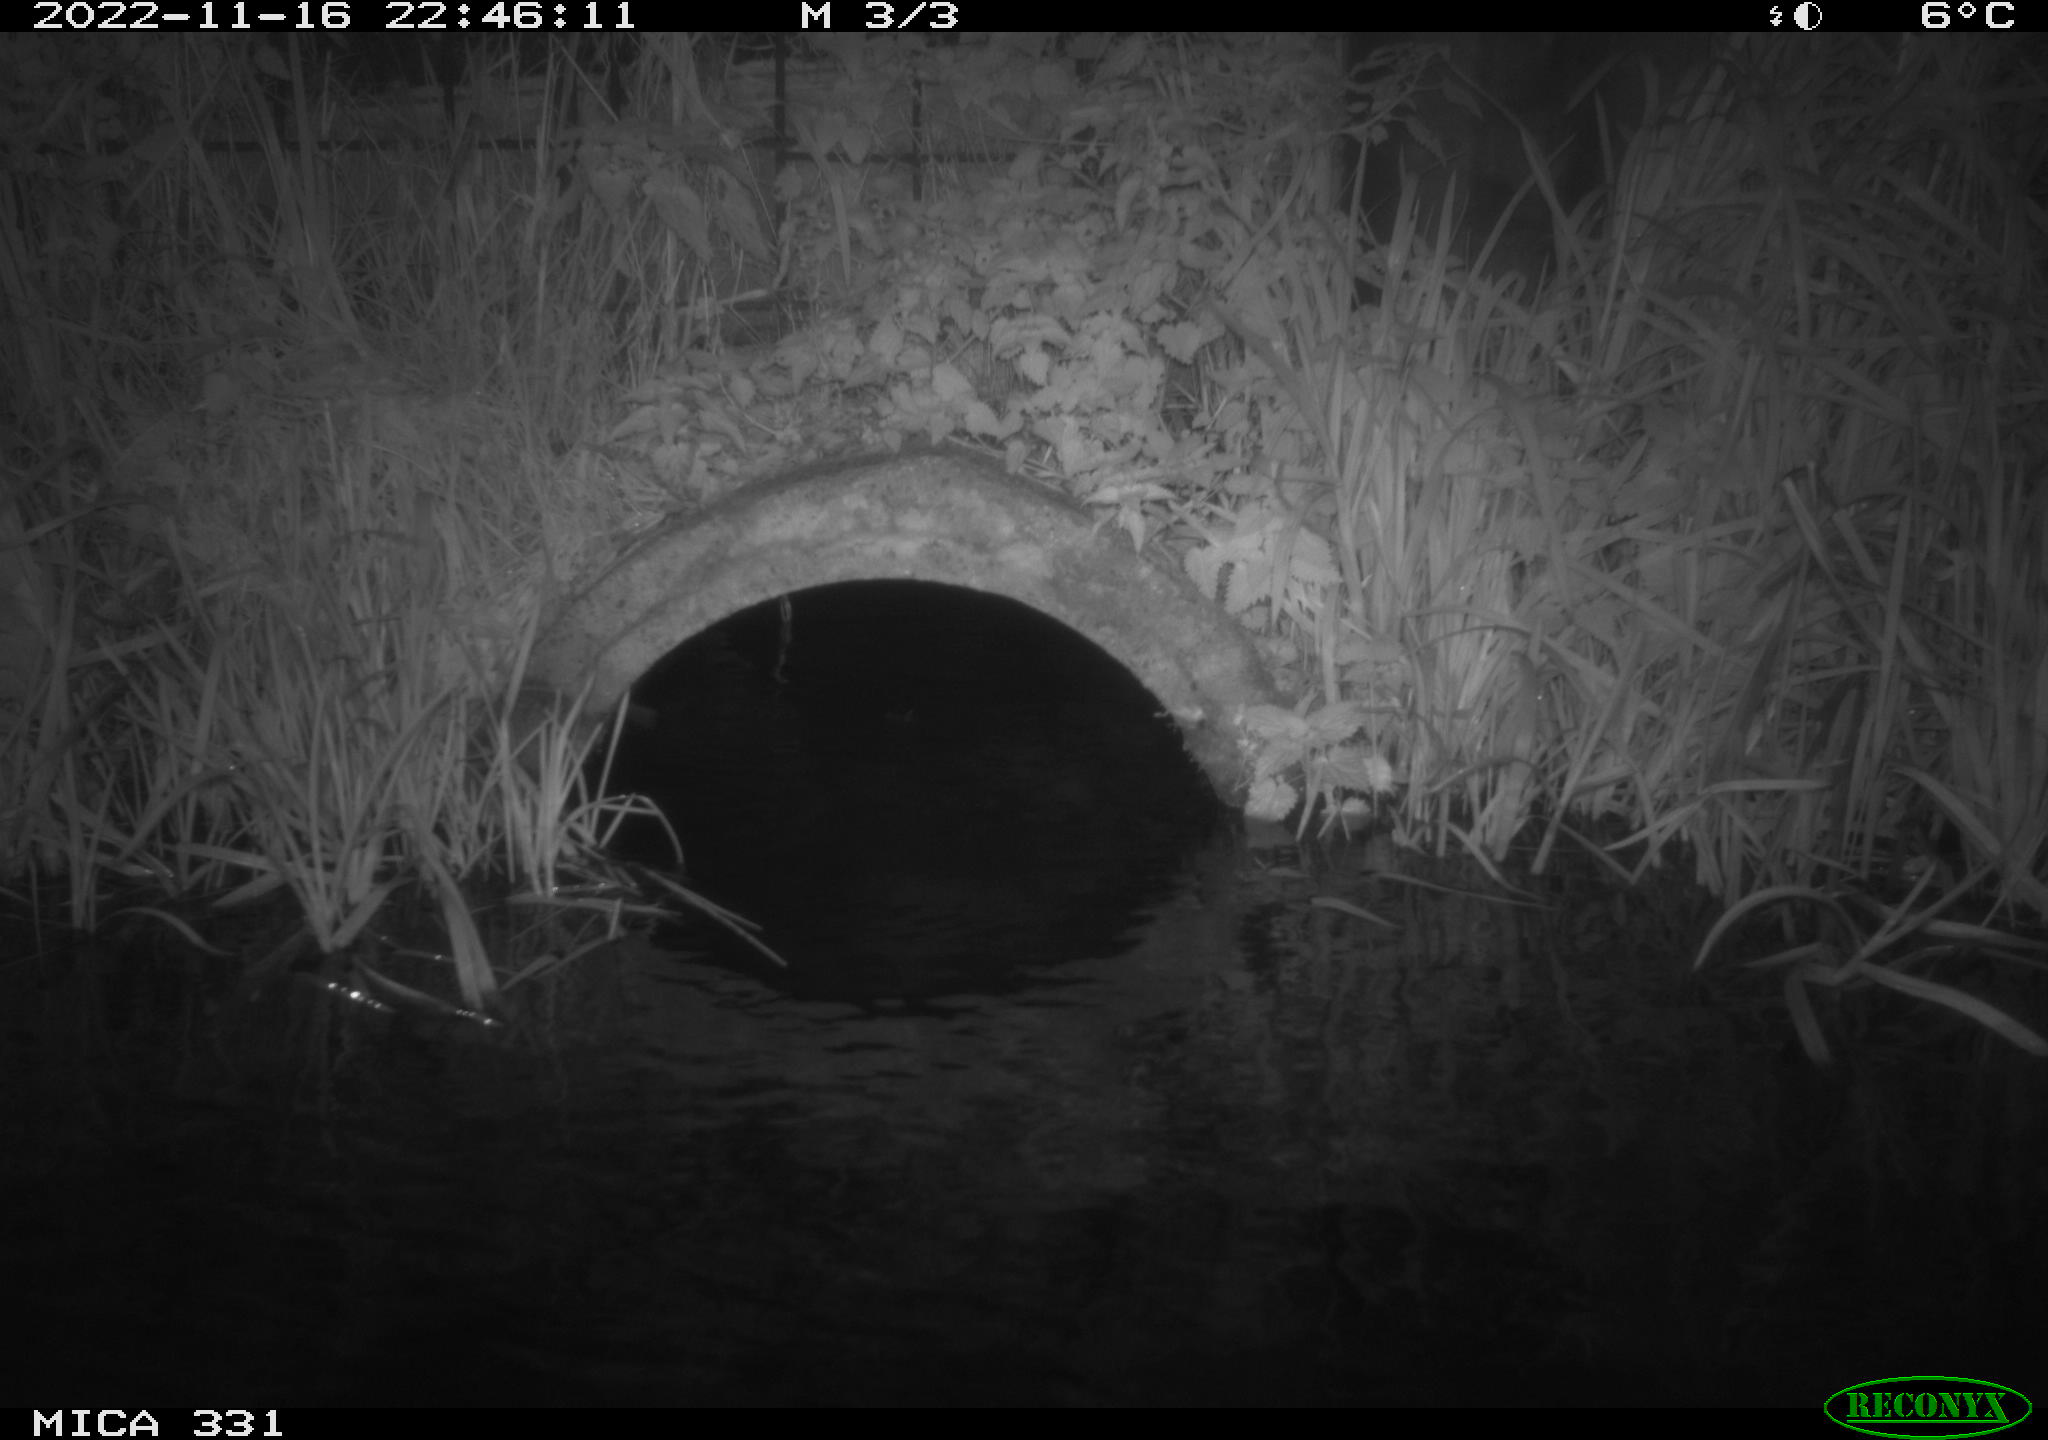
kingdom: Animalia
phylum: Chordata
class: Mammalia
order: Rodentia
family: Muridae
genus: Rattus
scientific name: Rattus norvegicus
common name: Brown rat
